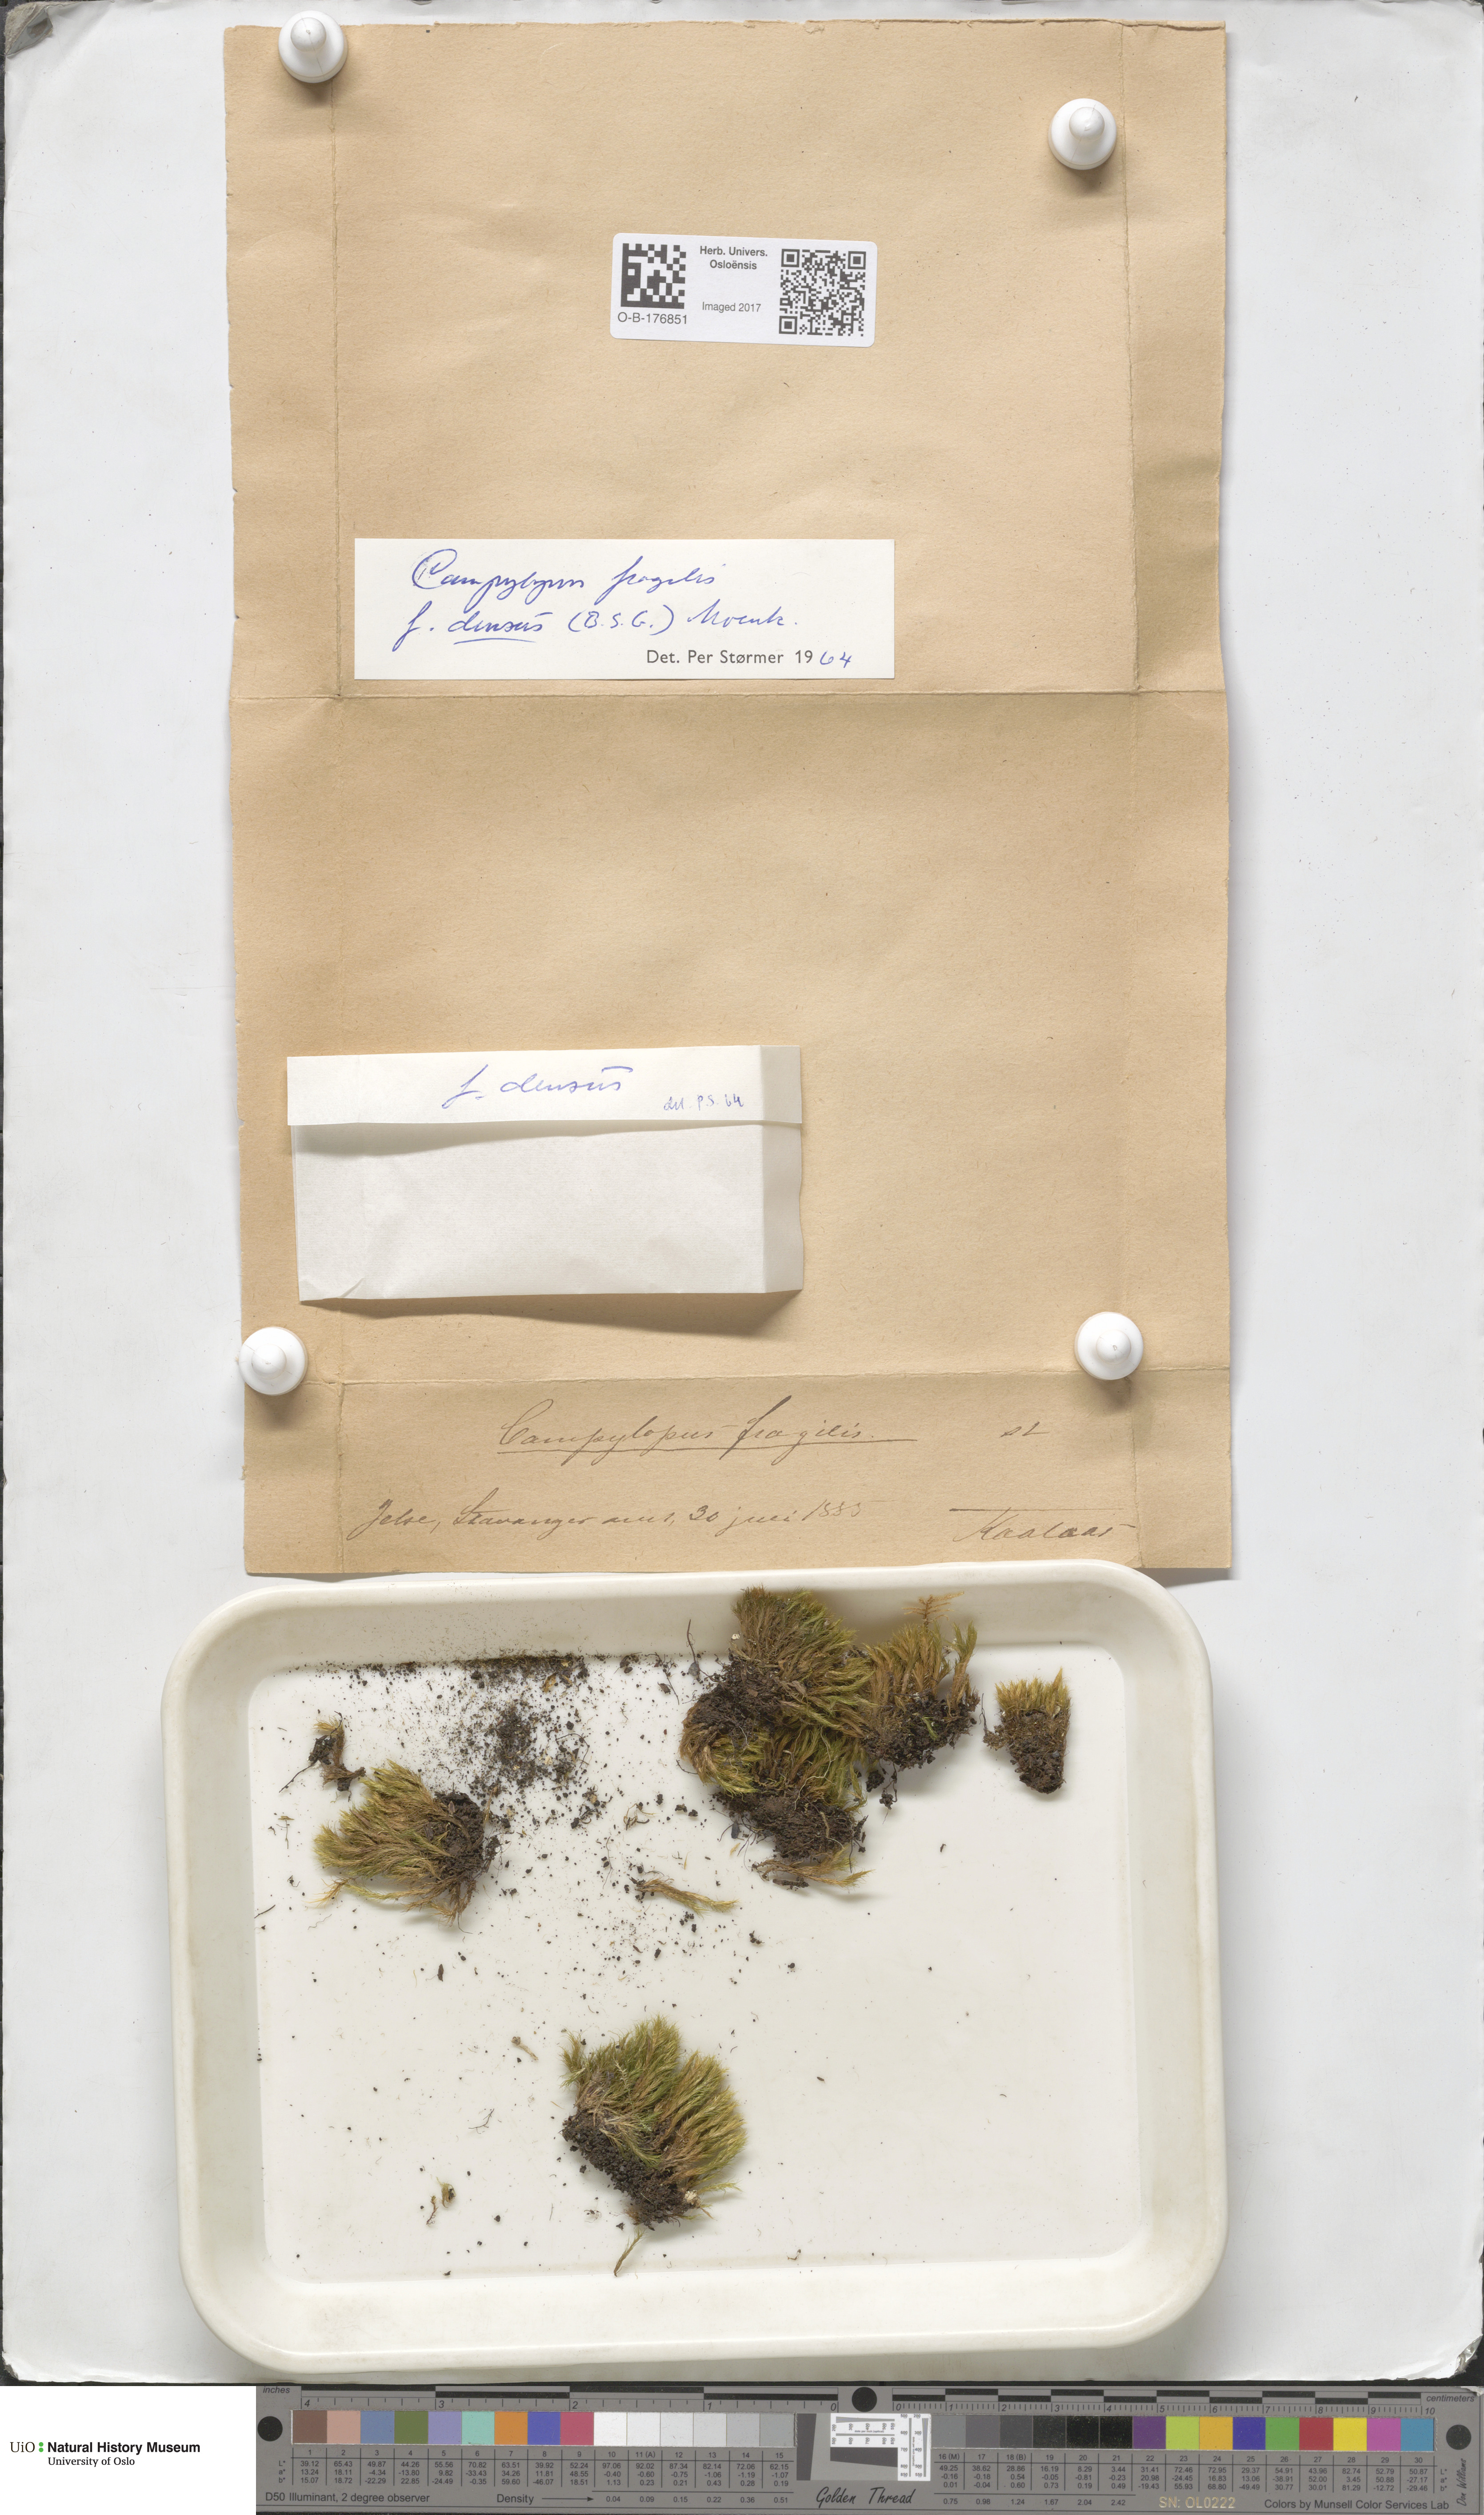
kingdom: Plantae
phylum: Bryophyta
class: Bryopsida
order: Dicranales
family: Leucobryaceae
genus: Campylopus
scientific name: Campylopus fragilis
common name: Brittle swan-neck moss
